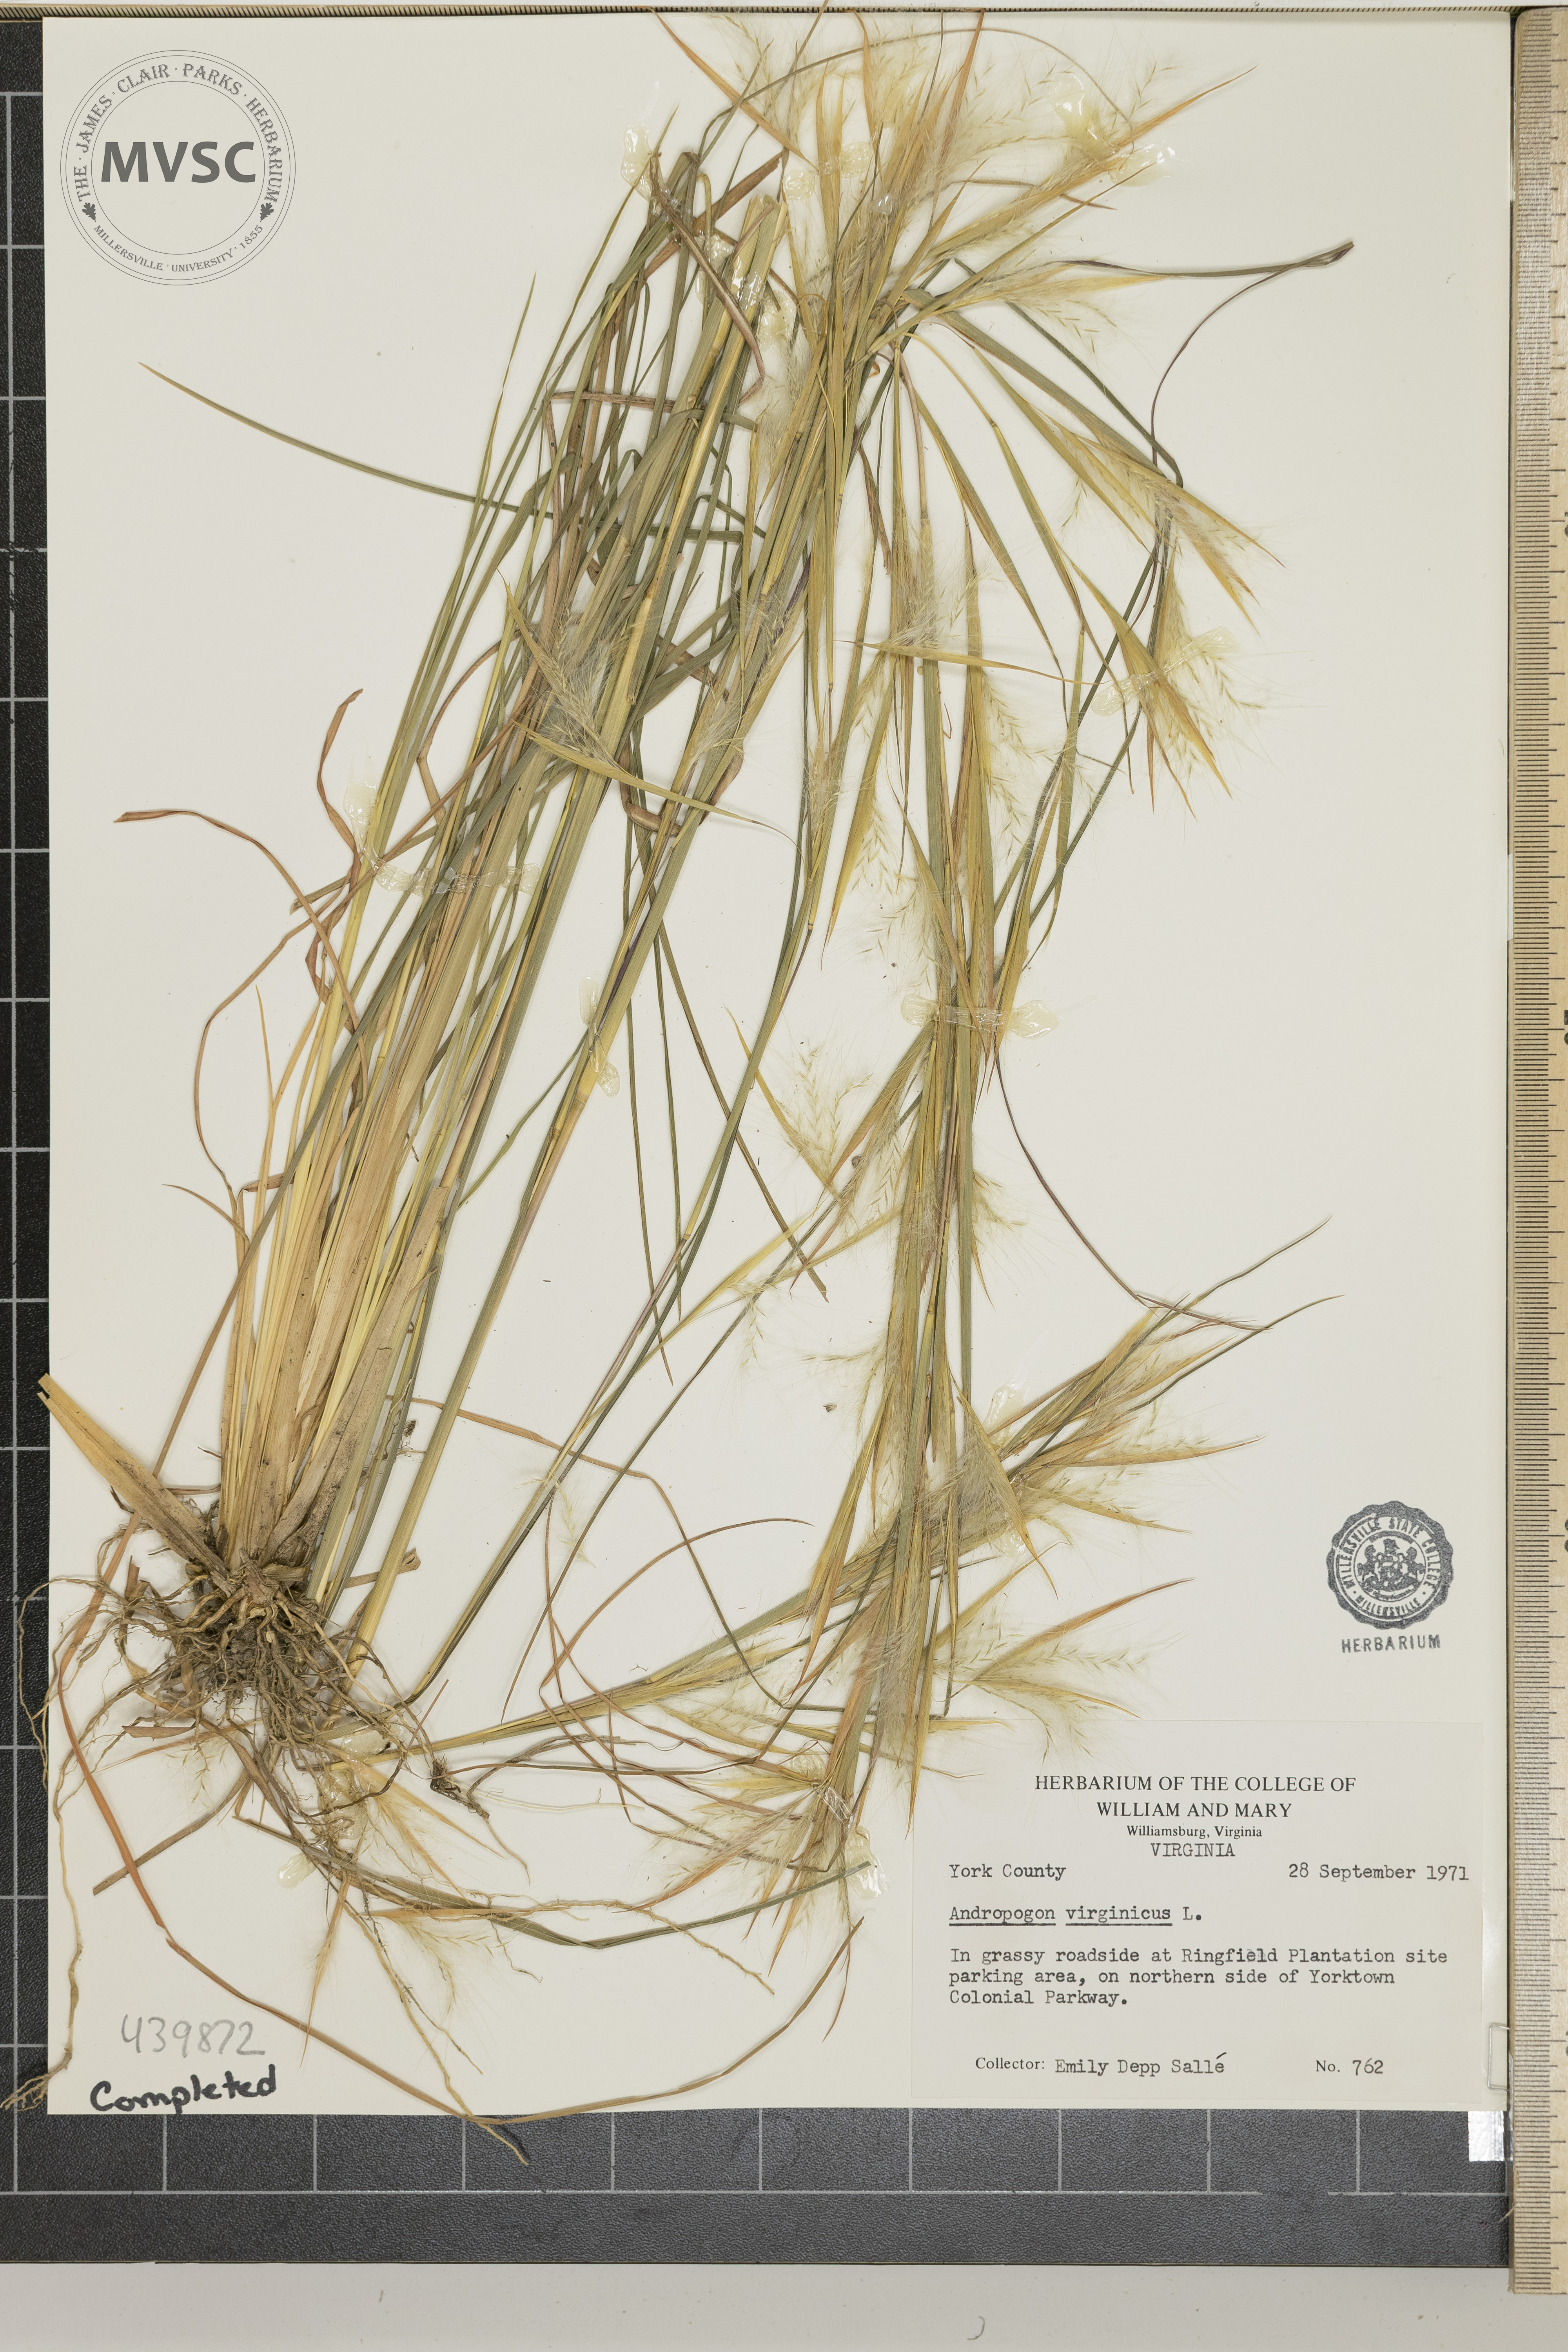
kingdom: Plantae
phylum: Tracheophyta
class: Liliopsida
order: Poales
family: Poaceae
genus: Andropogon
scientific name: Andropogon virginicus
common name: Broomsedge bluestem
